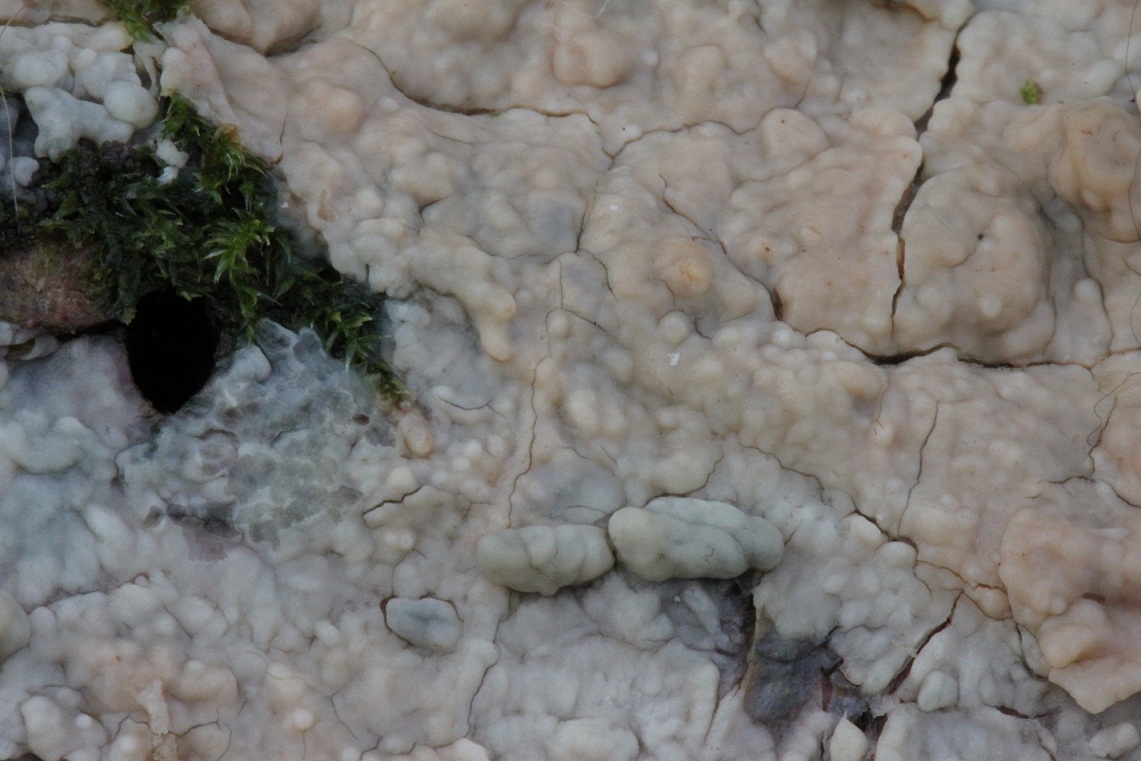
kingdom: Fungi
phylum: Basidiomycota
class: Agaricomycetes
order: Agaricales
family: Radulomycetaceae
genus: Radulomyces
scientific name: Radulomyces confluens
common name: glat naftalinskind
